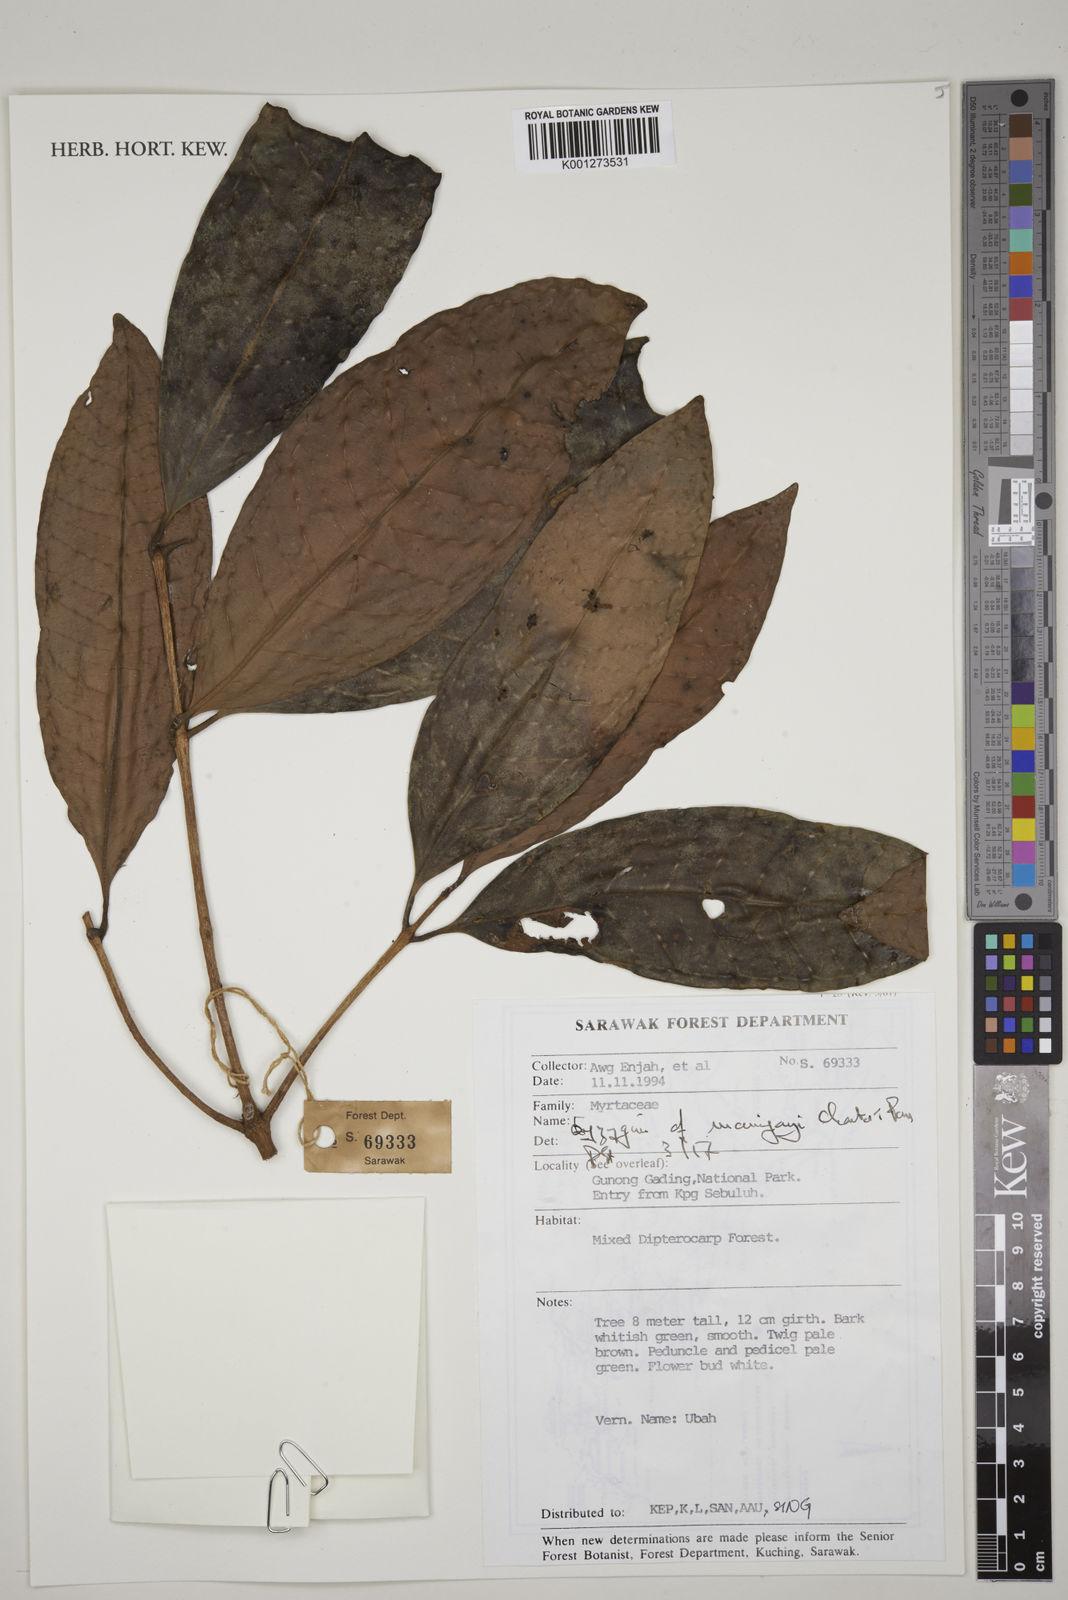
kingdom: Plantae
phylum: Tracheophyta
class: Magnoliopsida
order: Myrtales
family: Myrtaceae
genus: Syzygium
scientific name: Syzygium maingayi
